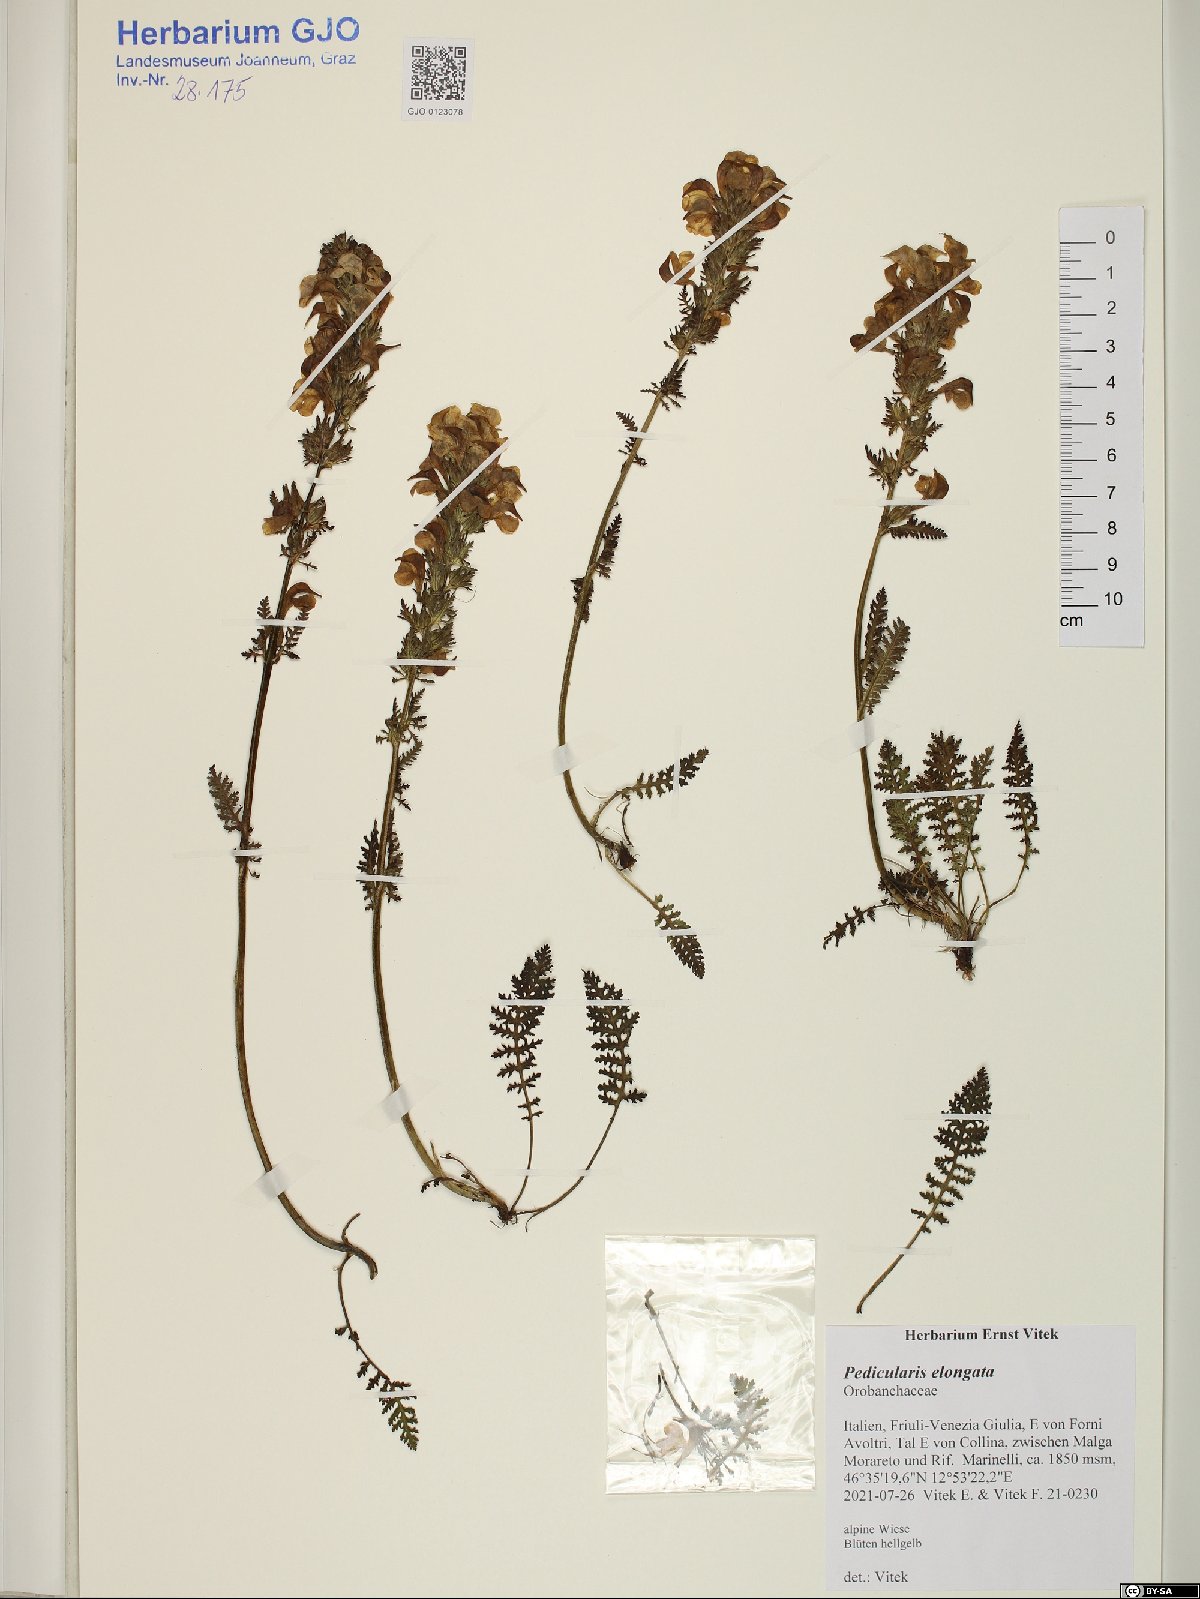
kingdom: Plantae
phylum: Tracheophyta
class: Magnoliopsida
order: Lamiales
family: Orobanchaceae
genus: Pedicularis
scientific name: Pedicularis elongata
